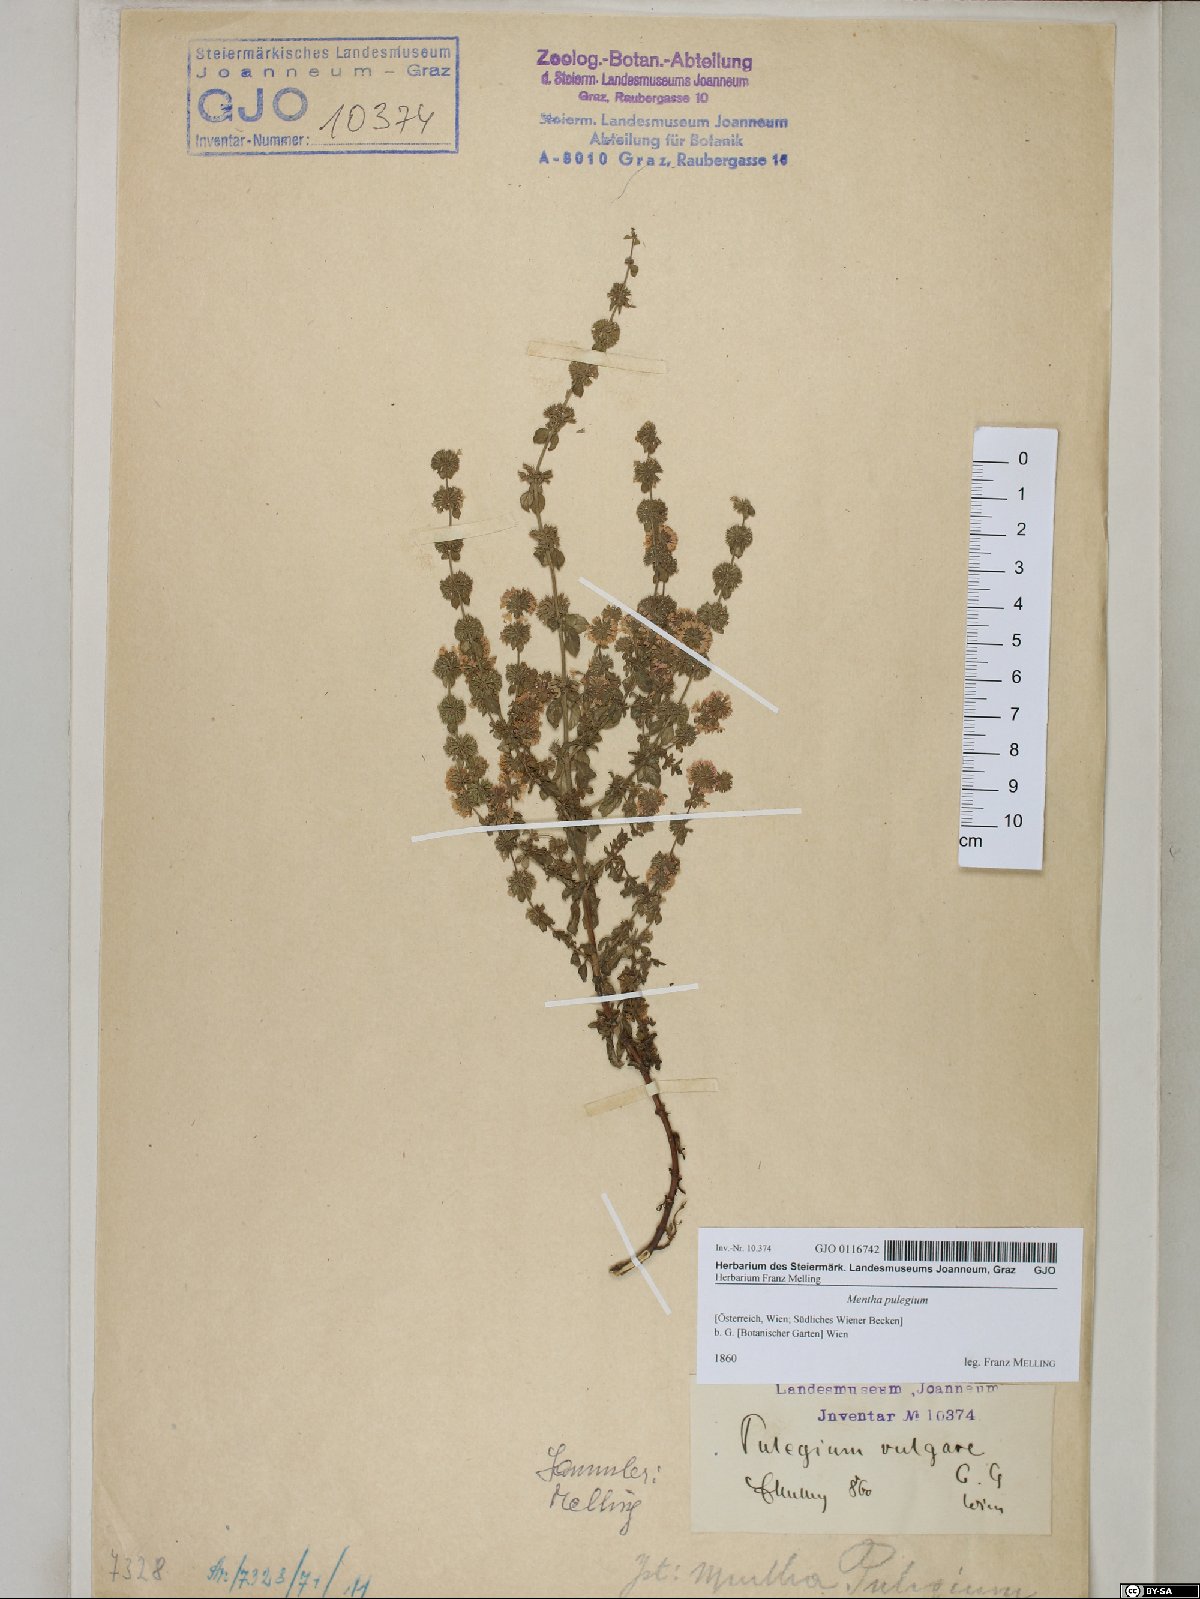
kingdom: Plantae
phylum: Tracheophyta
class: Magnoliopsida
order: Lamiales
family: Lamiaceae
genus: Mentha
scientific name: Mentha pulegium
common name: Pennyroyal
